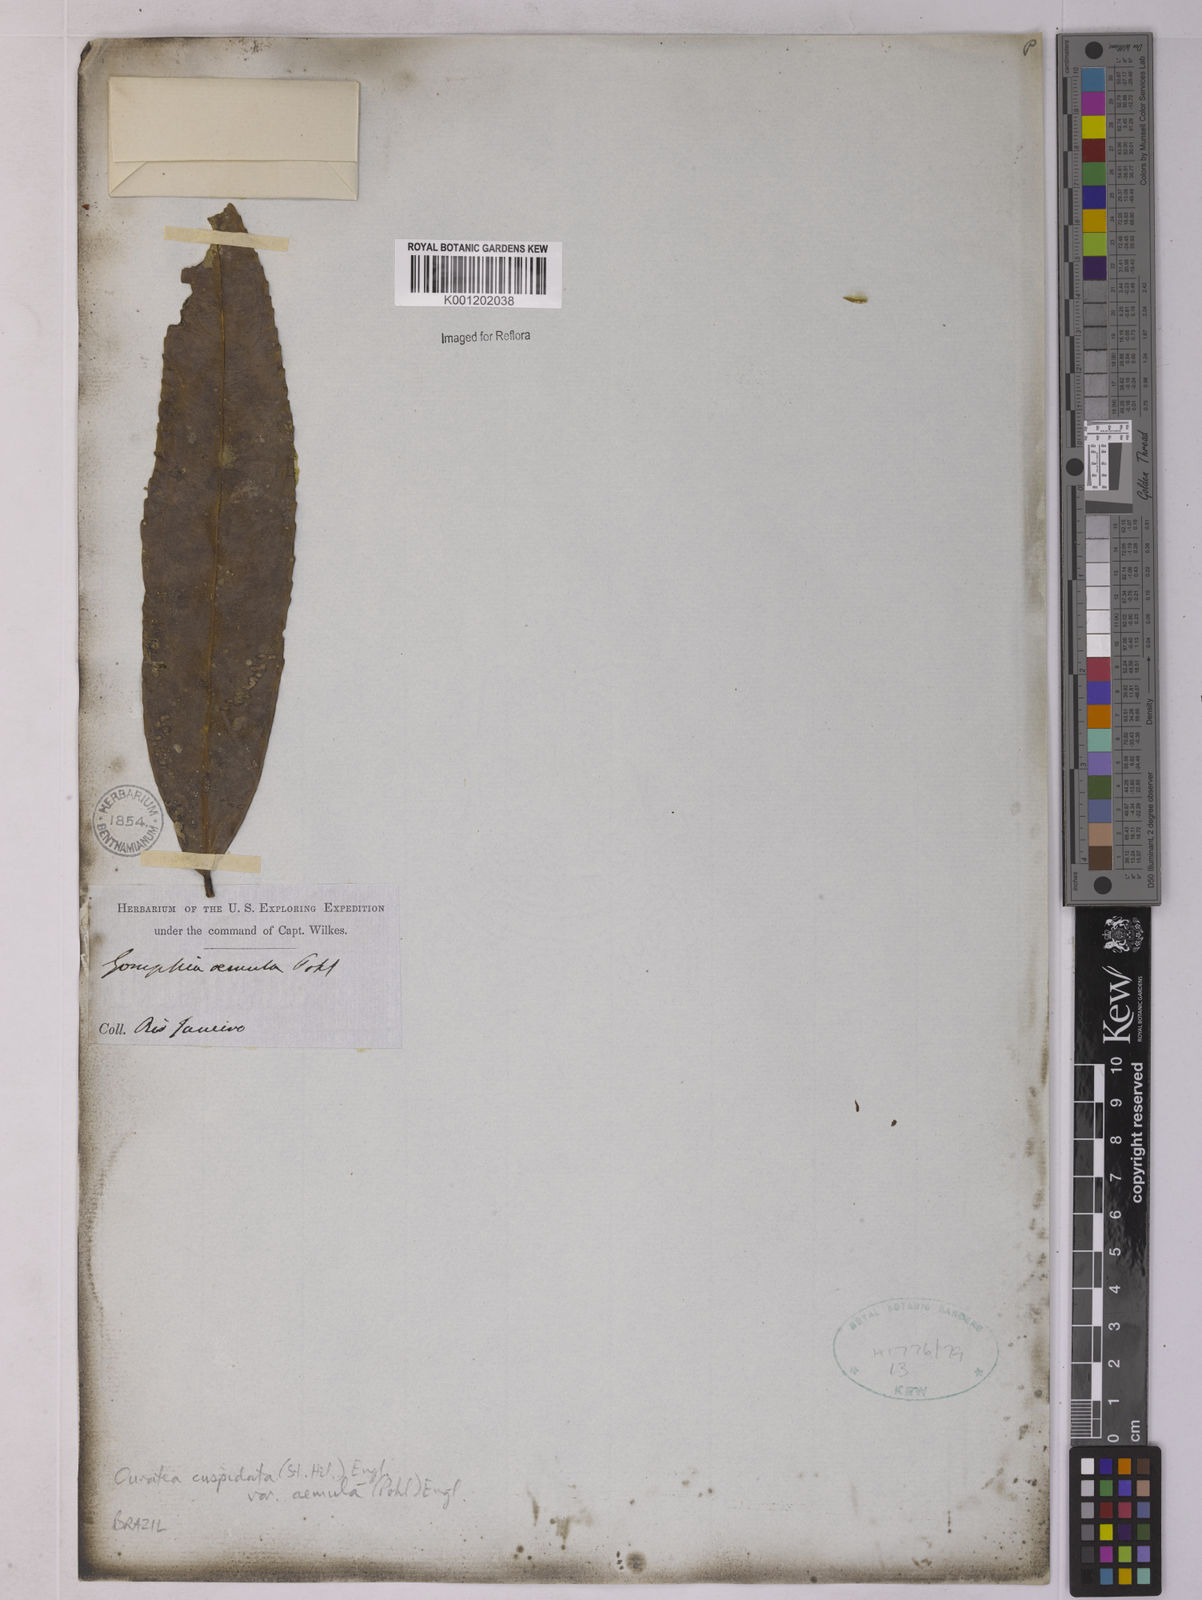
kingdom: Plantae
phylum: Tracheophyta
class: Magnoliopsida
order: Malpighiales
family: Ochnaceae
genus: Ouratea
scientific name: Ouratea cuspidata
